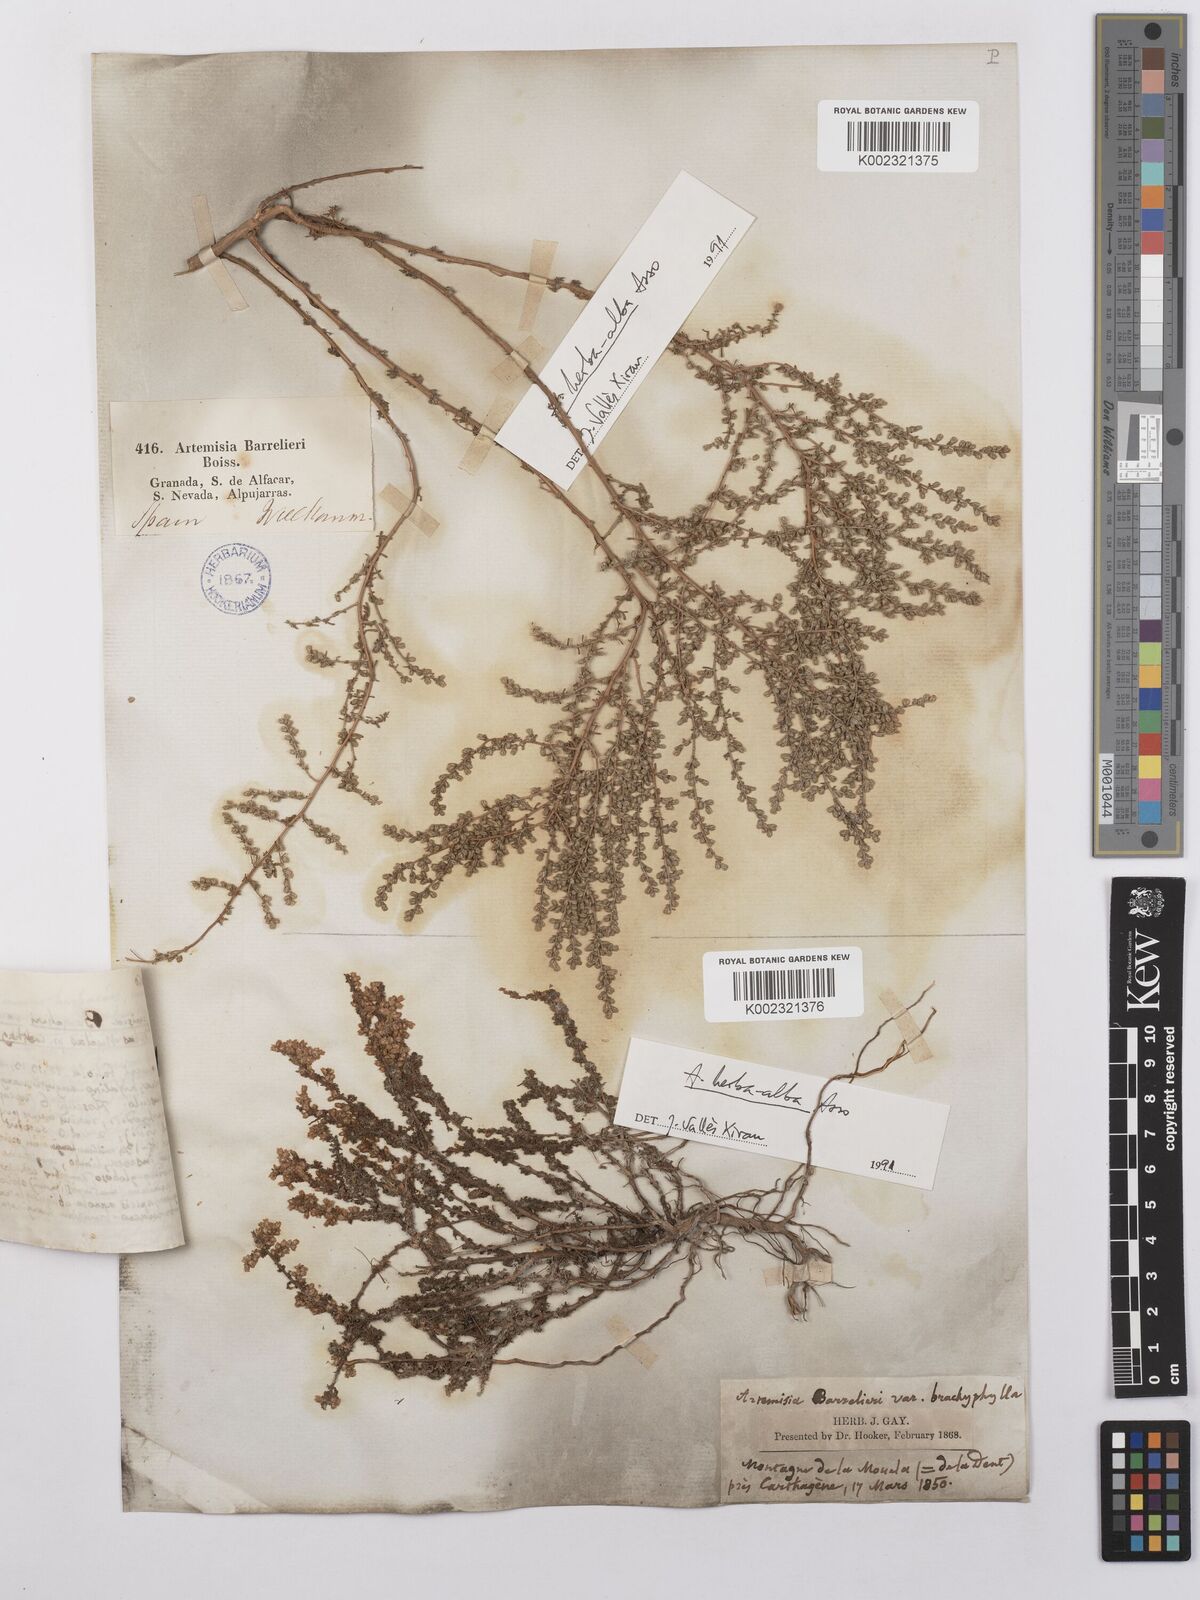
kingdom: Plantae
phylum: Tracheophyta
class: Magnoliopsida
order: Asterales
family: Asteraceae
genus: Artemisia
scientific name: Artemisia barrelieri
